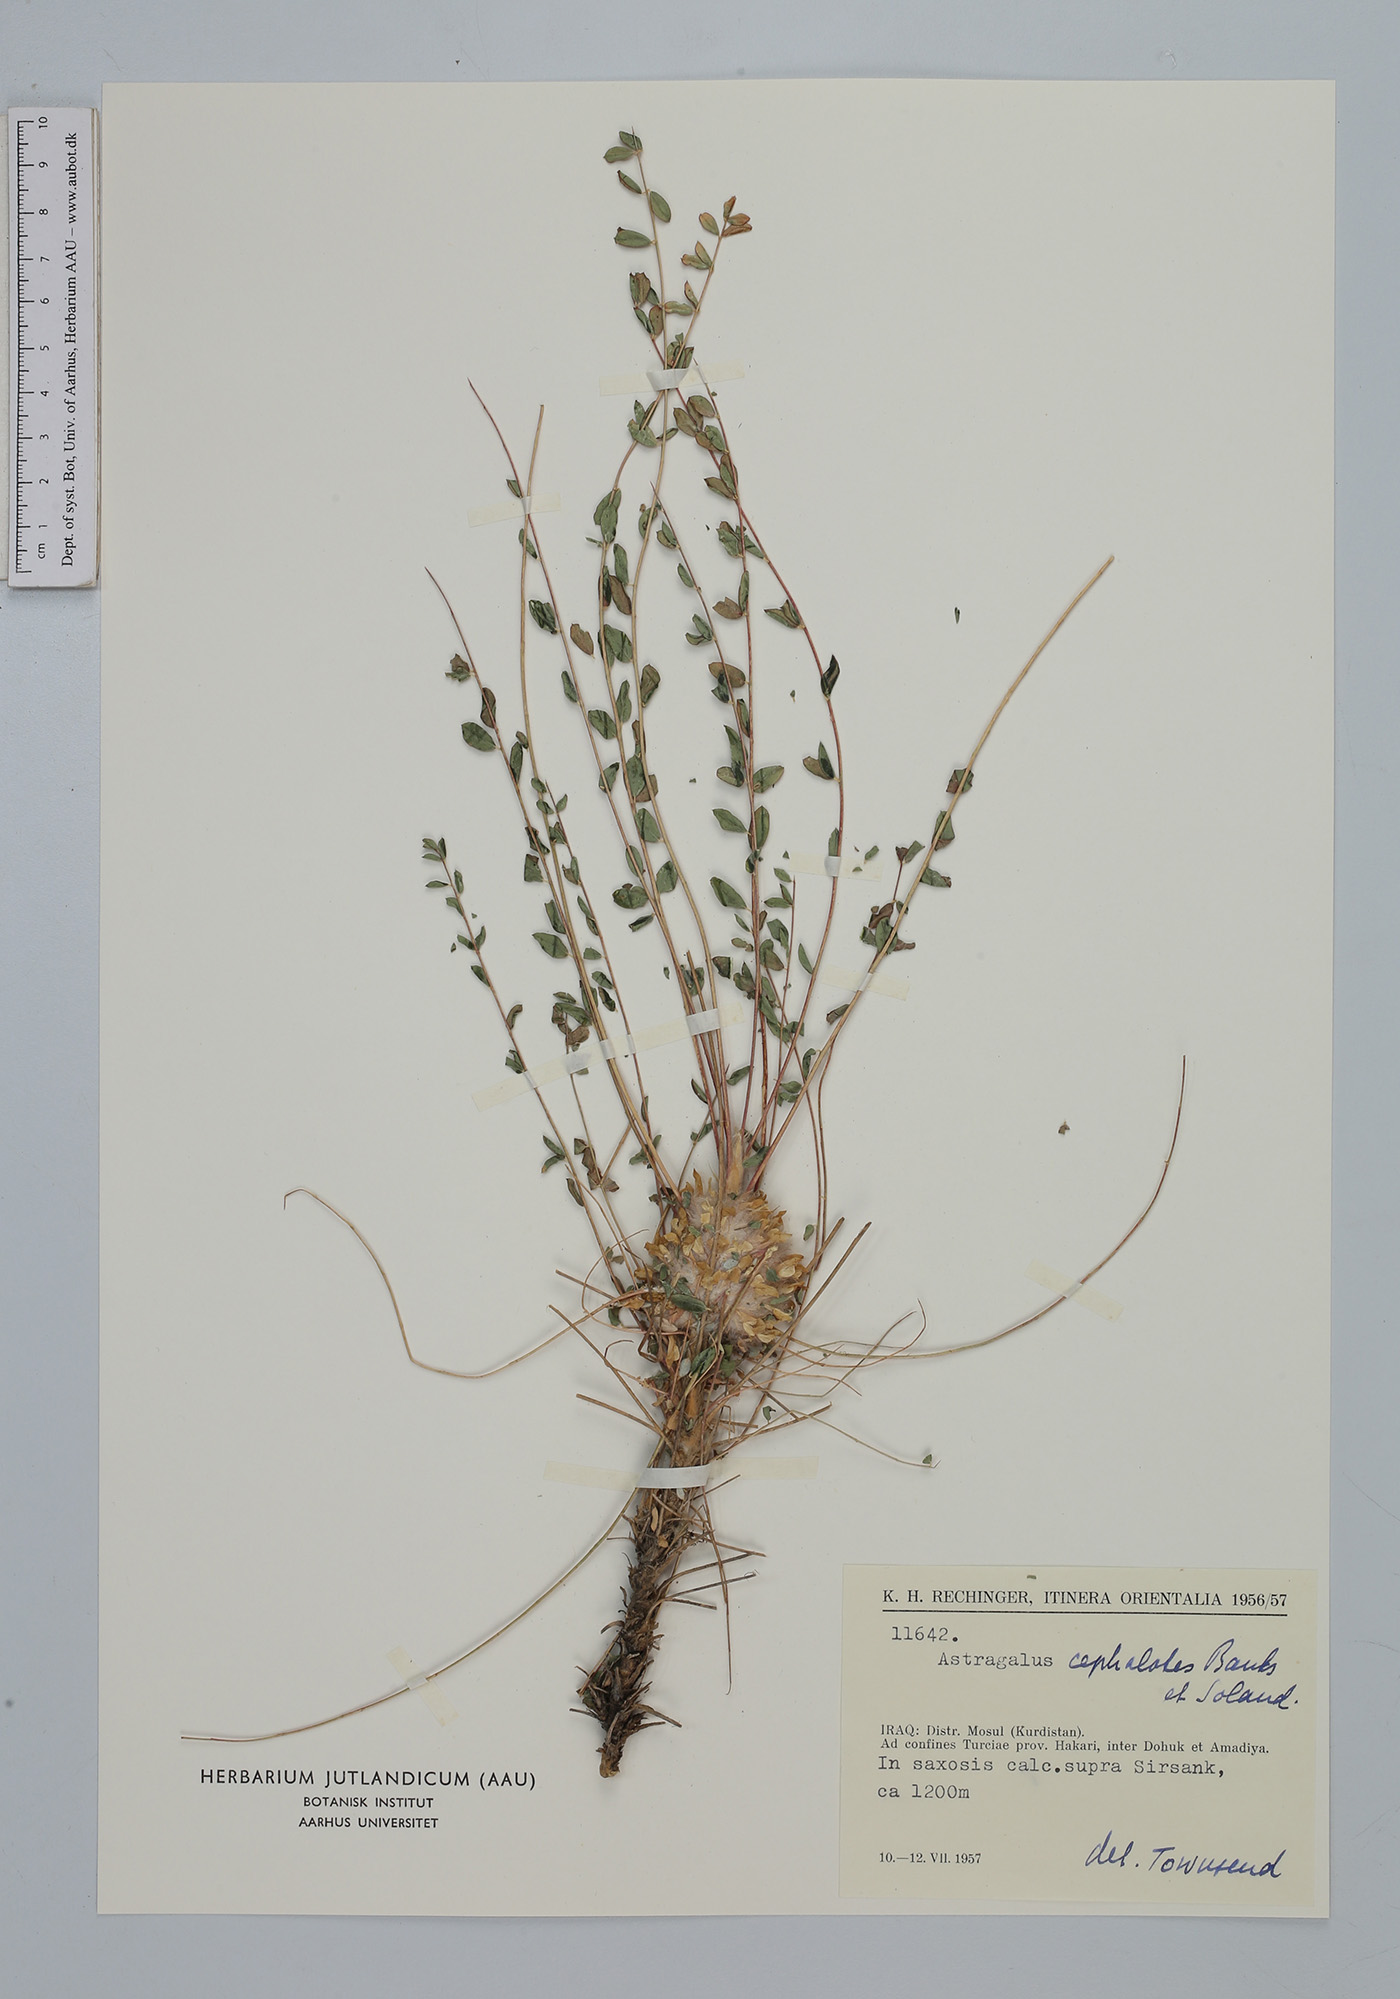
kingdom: Plantae
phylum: Tracheophyta
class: Magnoliopsida
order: Fabales
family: Fabaceae
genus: Astragalus
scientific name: Astragalus cephalotes
